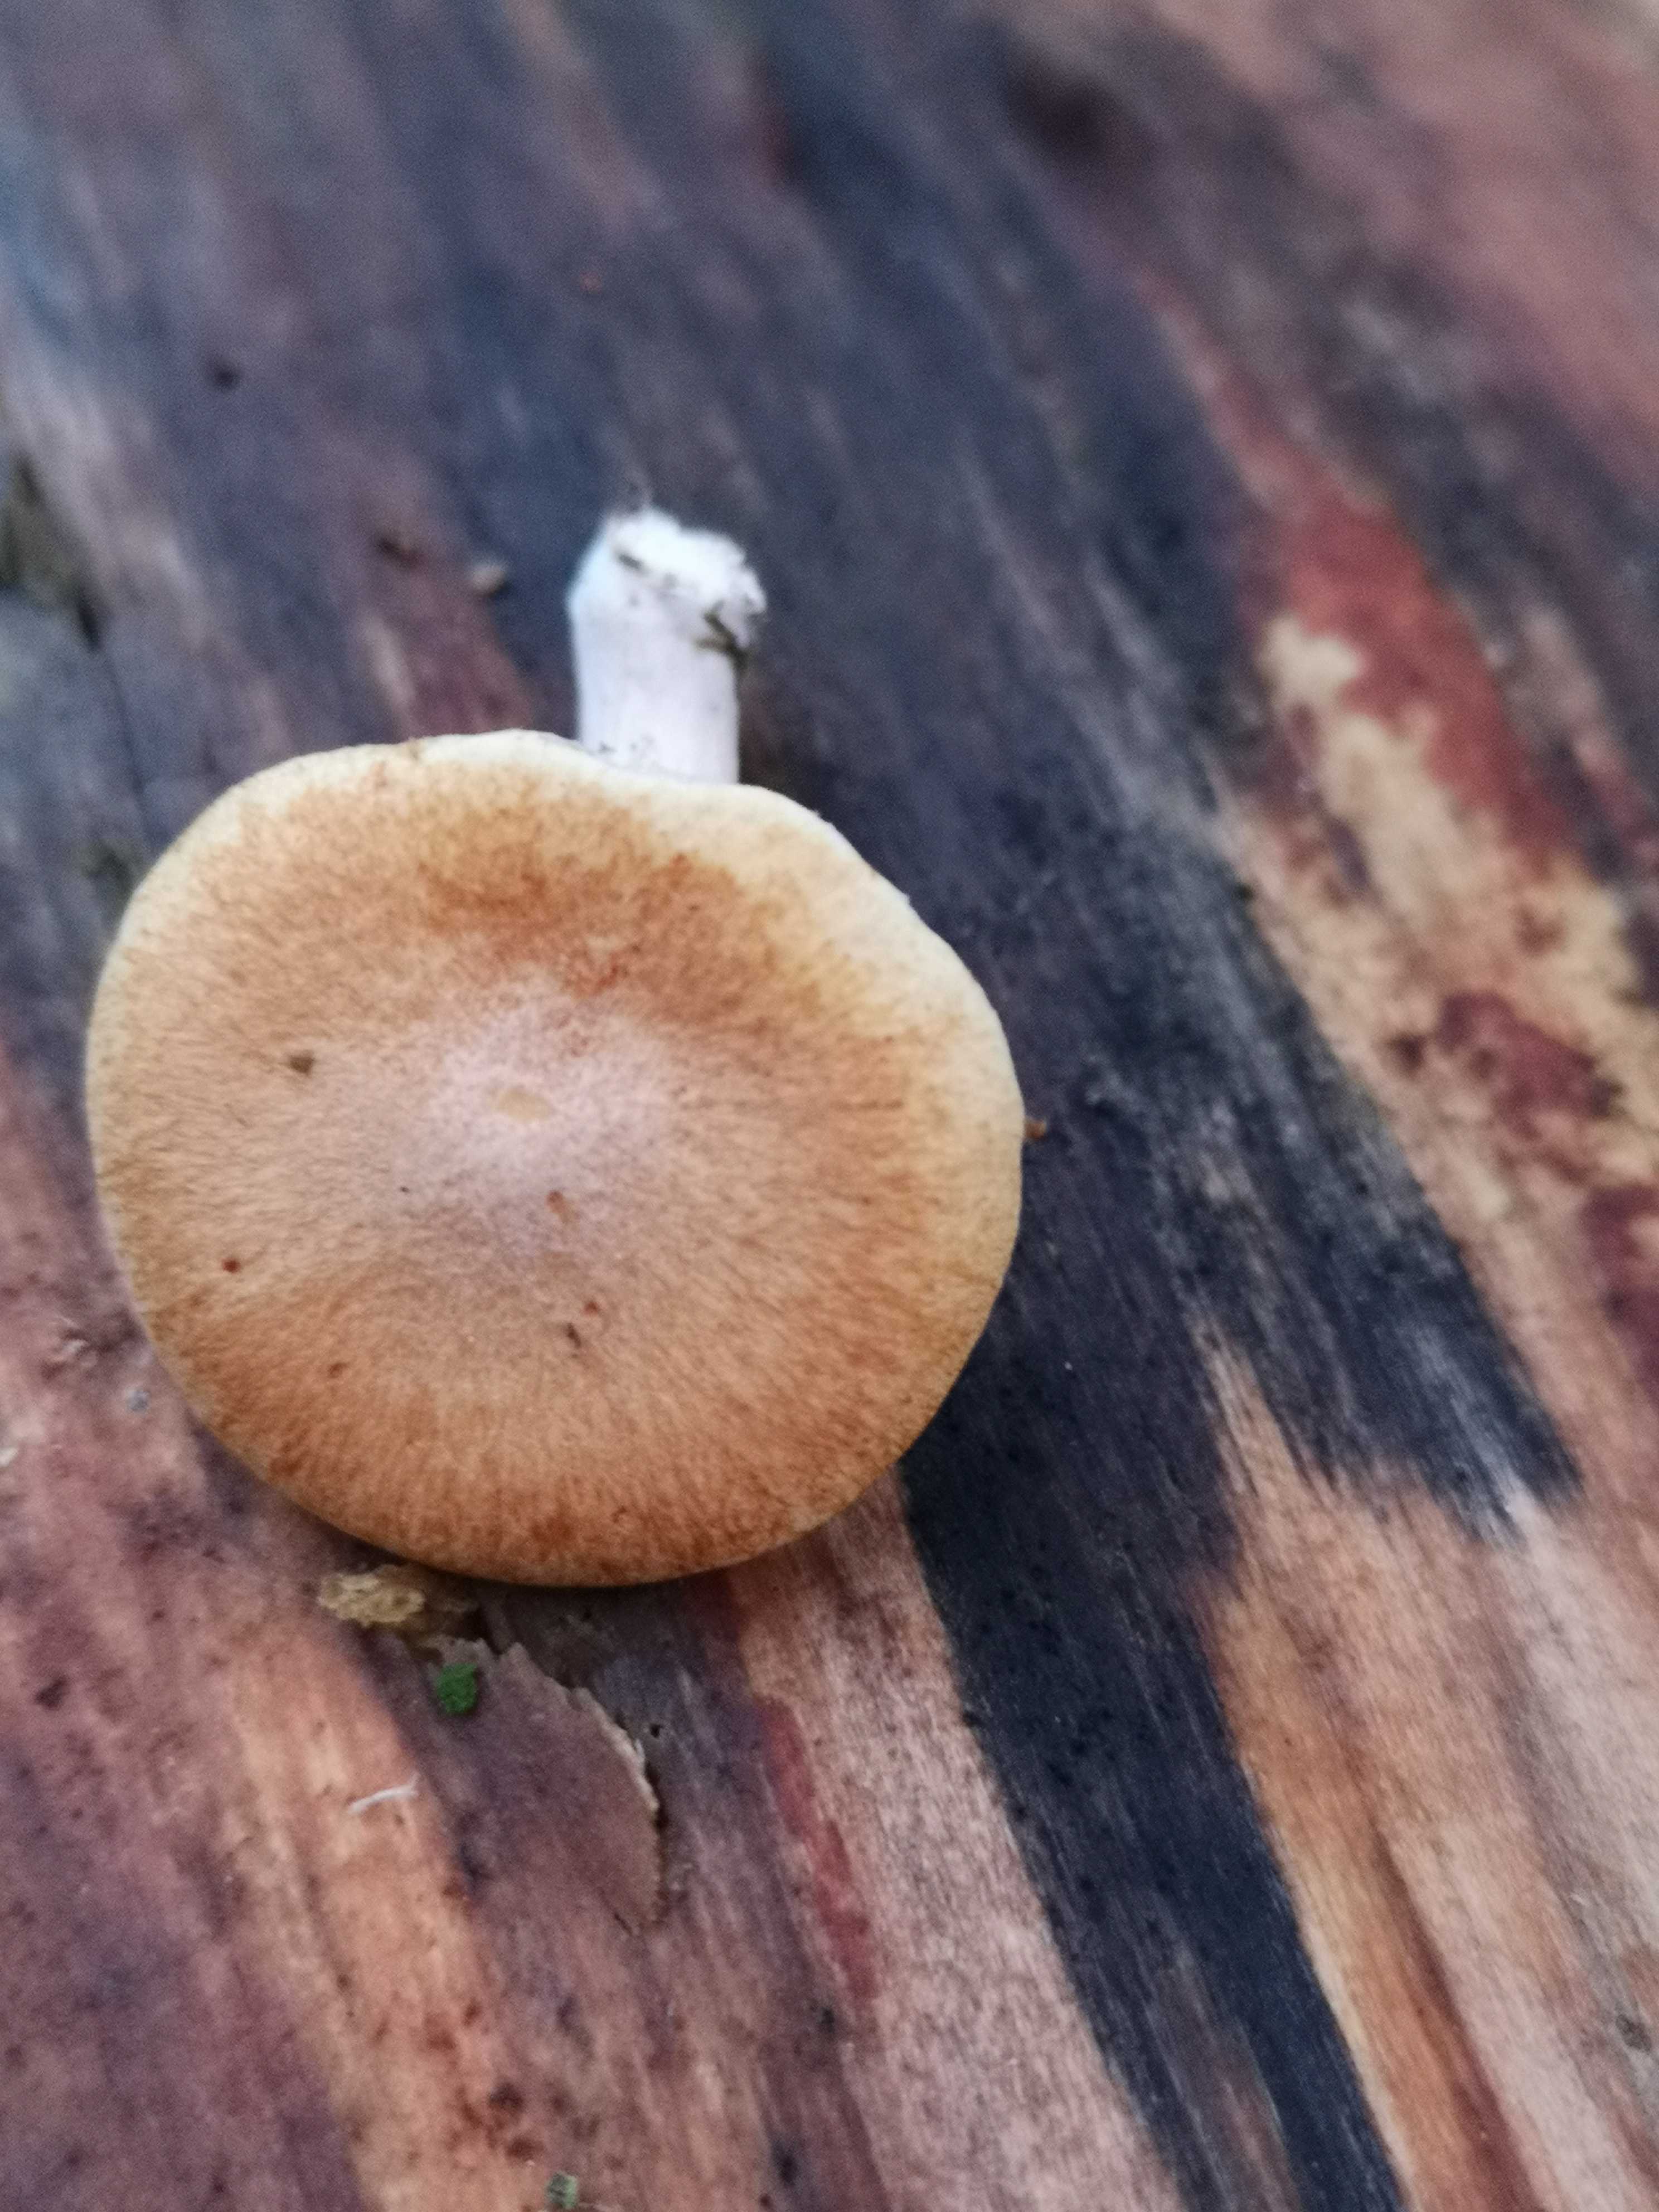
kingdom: Fungi
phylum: Basidiomycota
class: Agaricomycetes
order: Agaricales
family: Hymenogastraceae
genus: Gymnopilus
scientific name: Gymnopilus penetrans
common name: plettet flammehat
